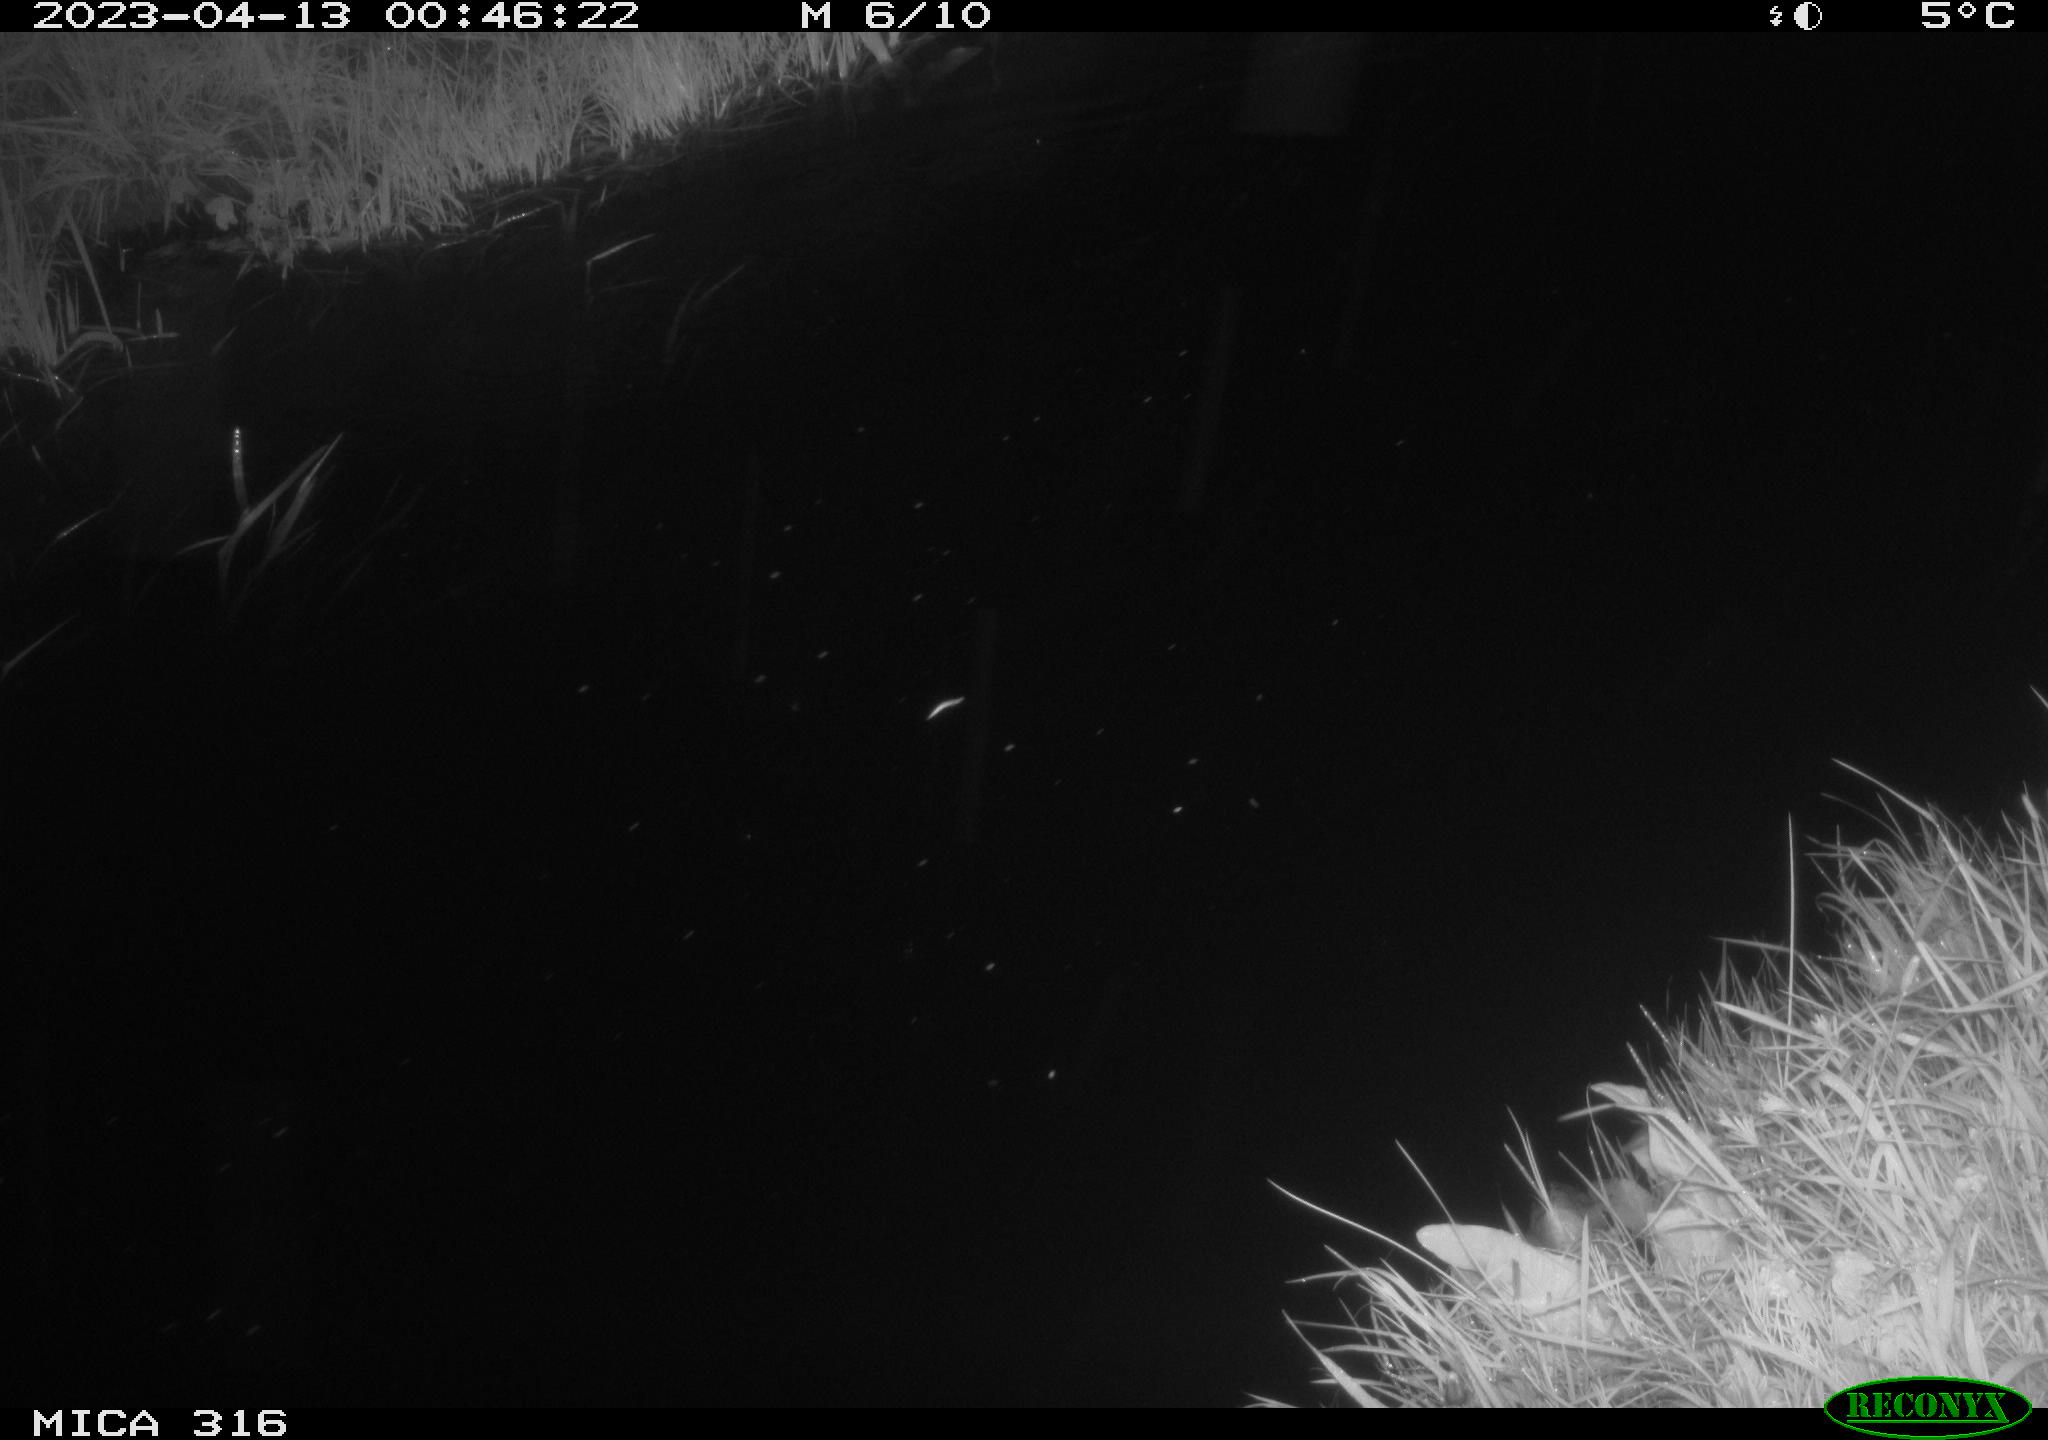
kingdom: Animalia
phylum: Chordata
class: Aves
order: Anseriformes
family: Anatidae
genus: Anas
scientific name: Anas
